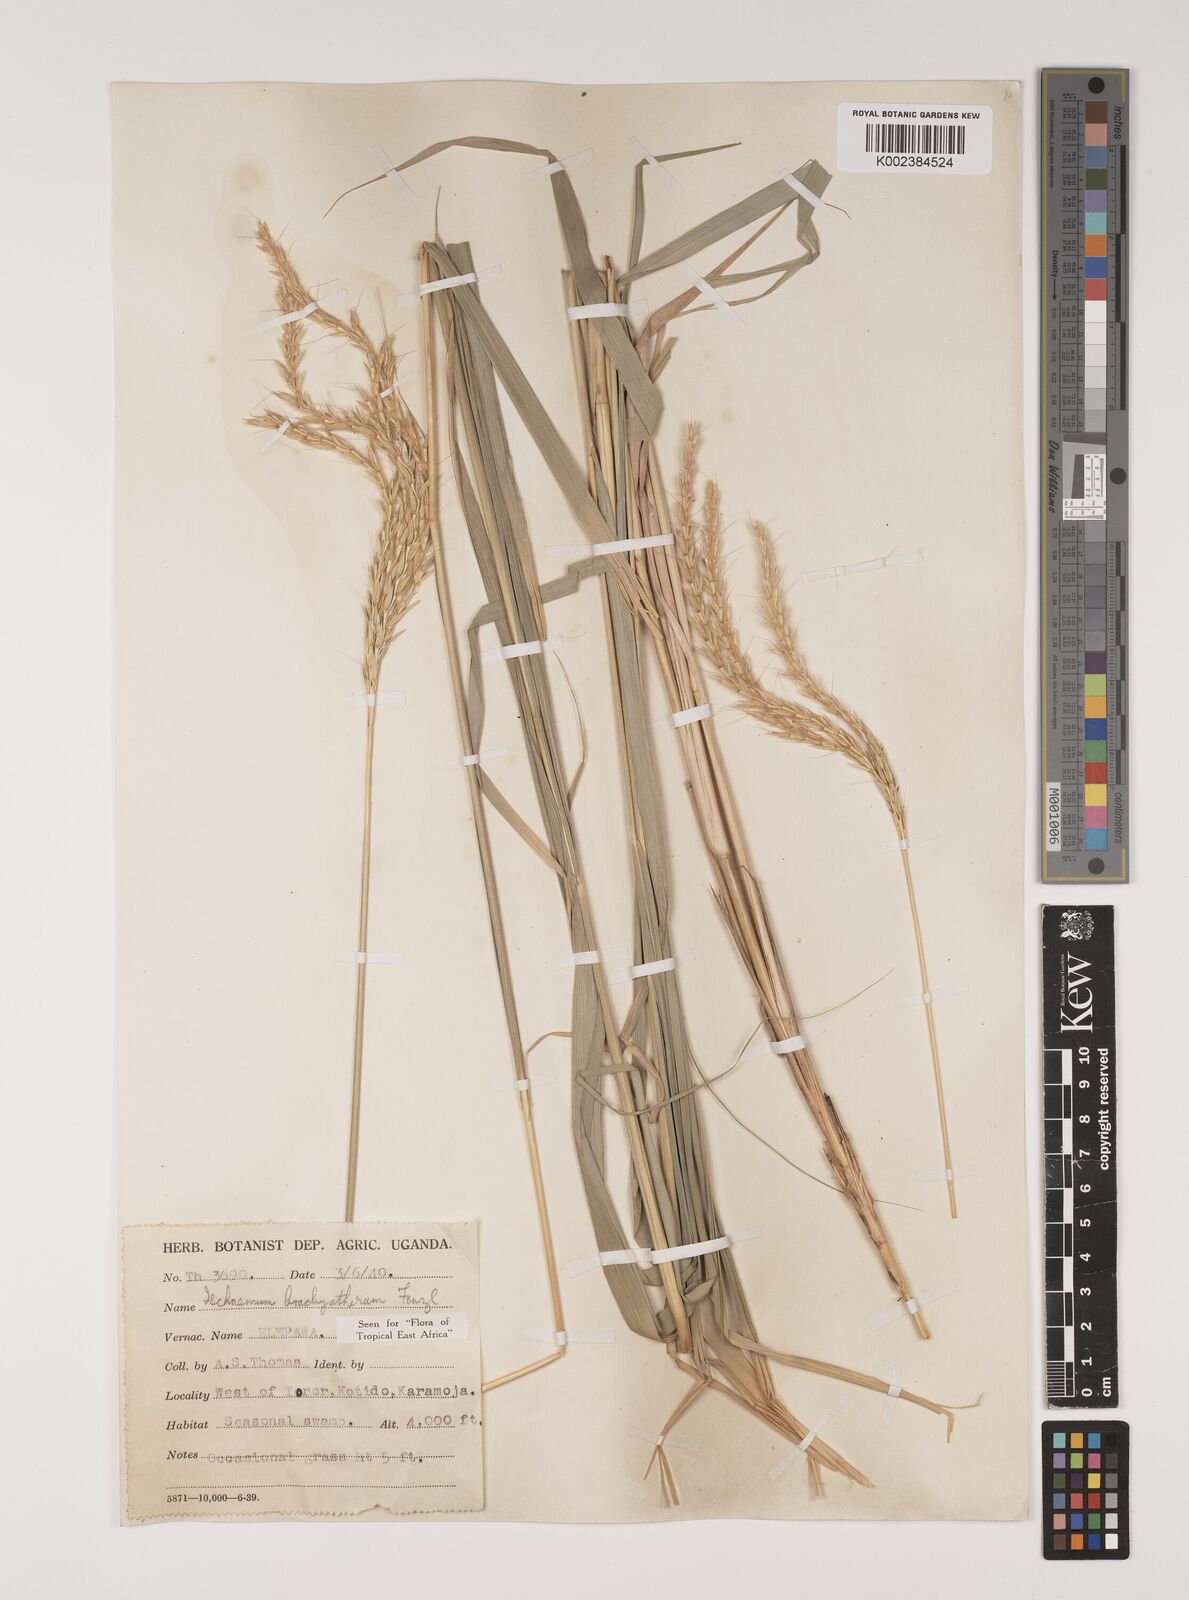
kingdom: Plantae
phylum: Tracheophyta
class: Liliopsida
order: Poales
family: Poaceae
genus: Ischaemum
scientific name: Ischaemum afrum
